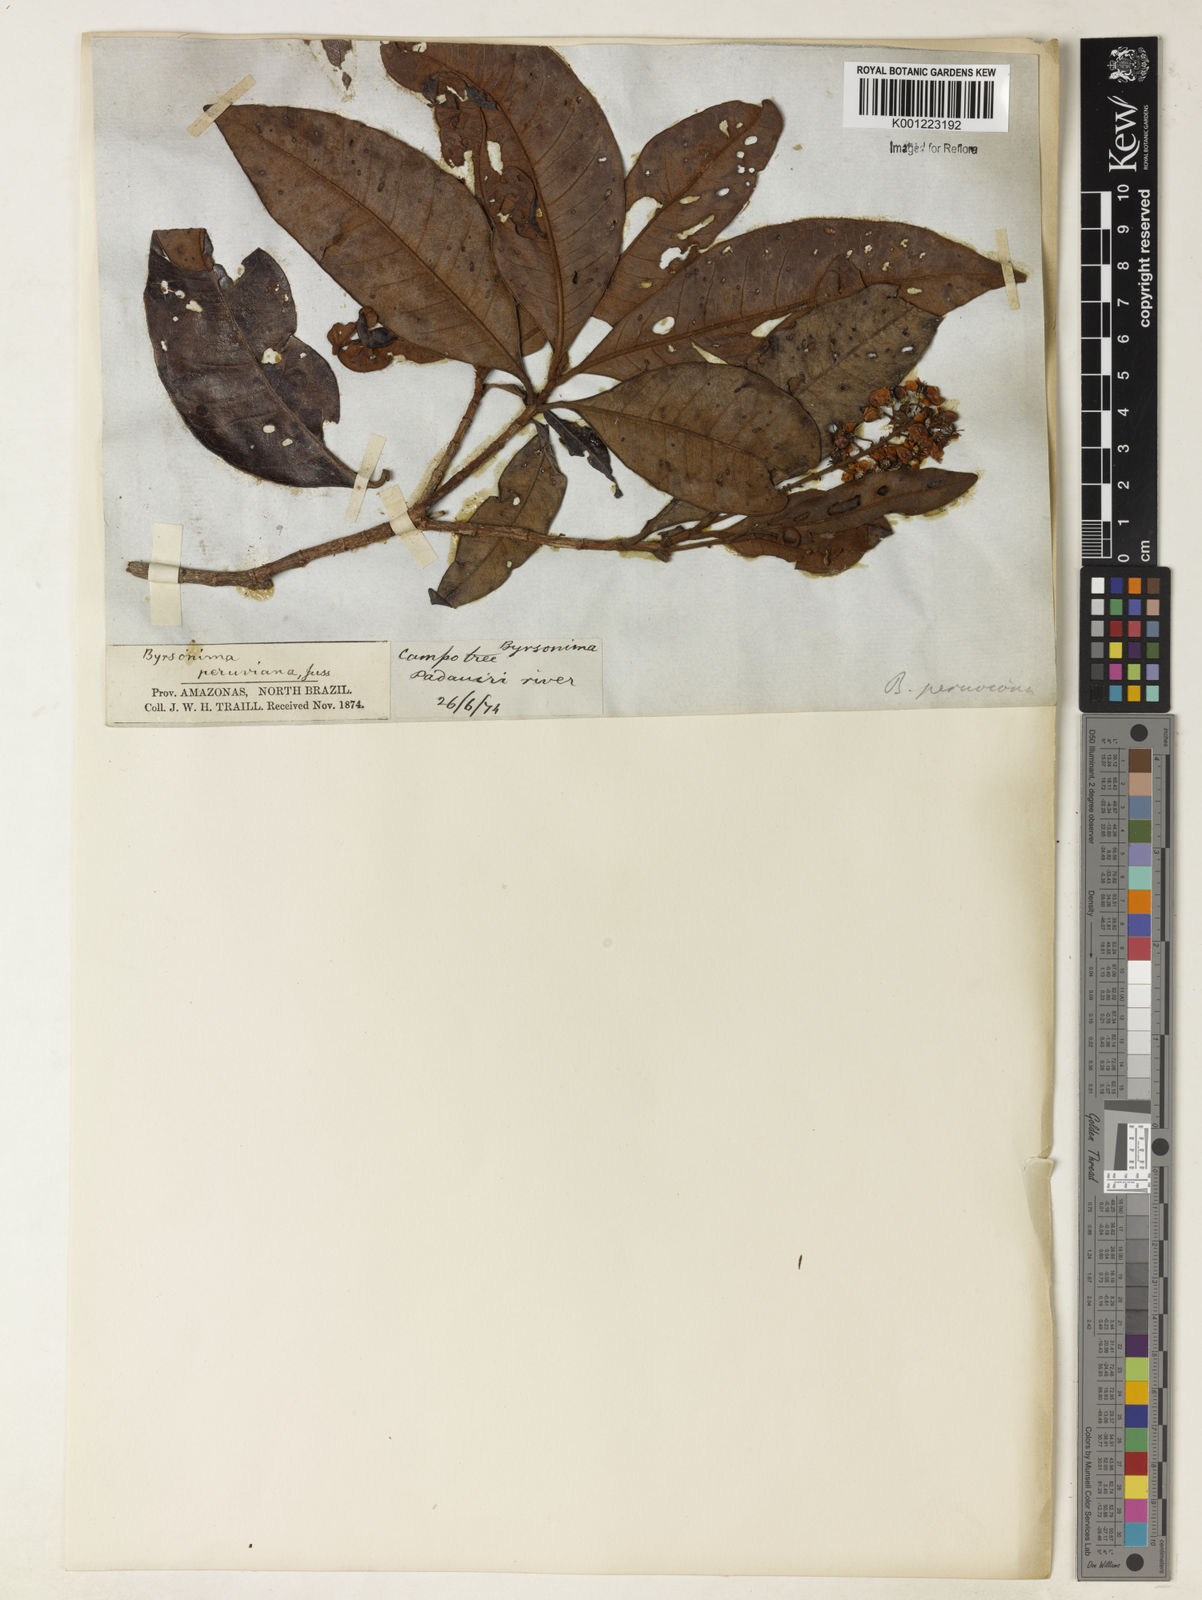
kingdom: Plantae
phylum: Tracheophyta
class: Magnoliopsida
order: Malpighiales
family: Malpighiaceae
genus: Byrsonima
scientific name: Byrsonima
